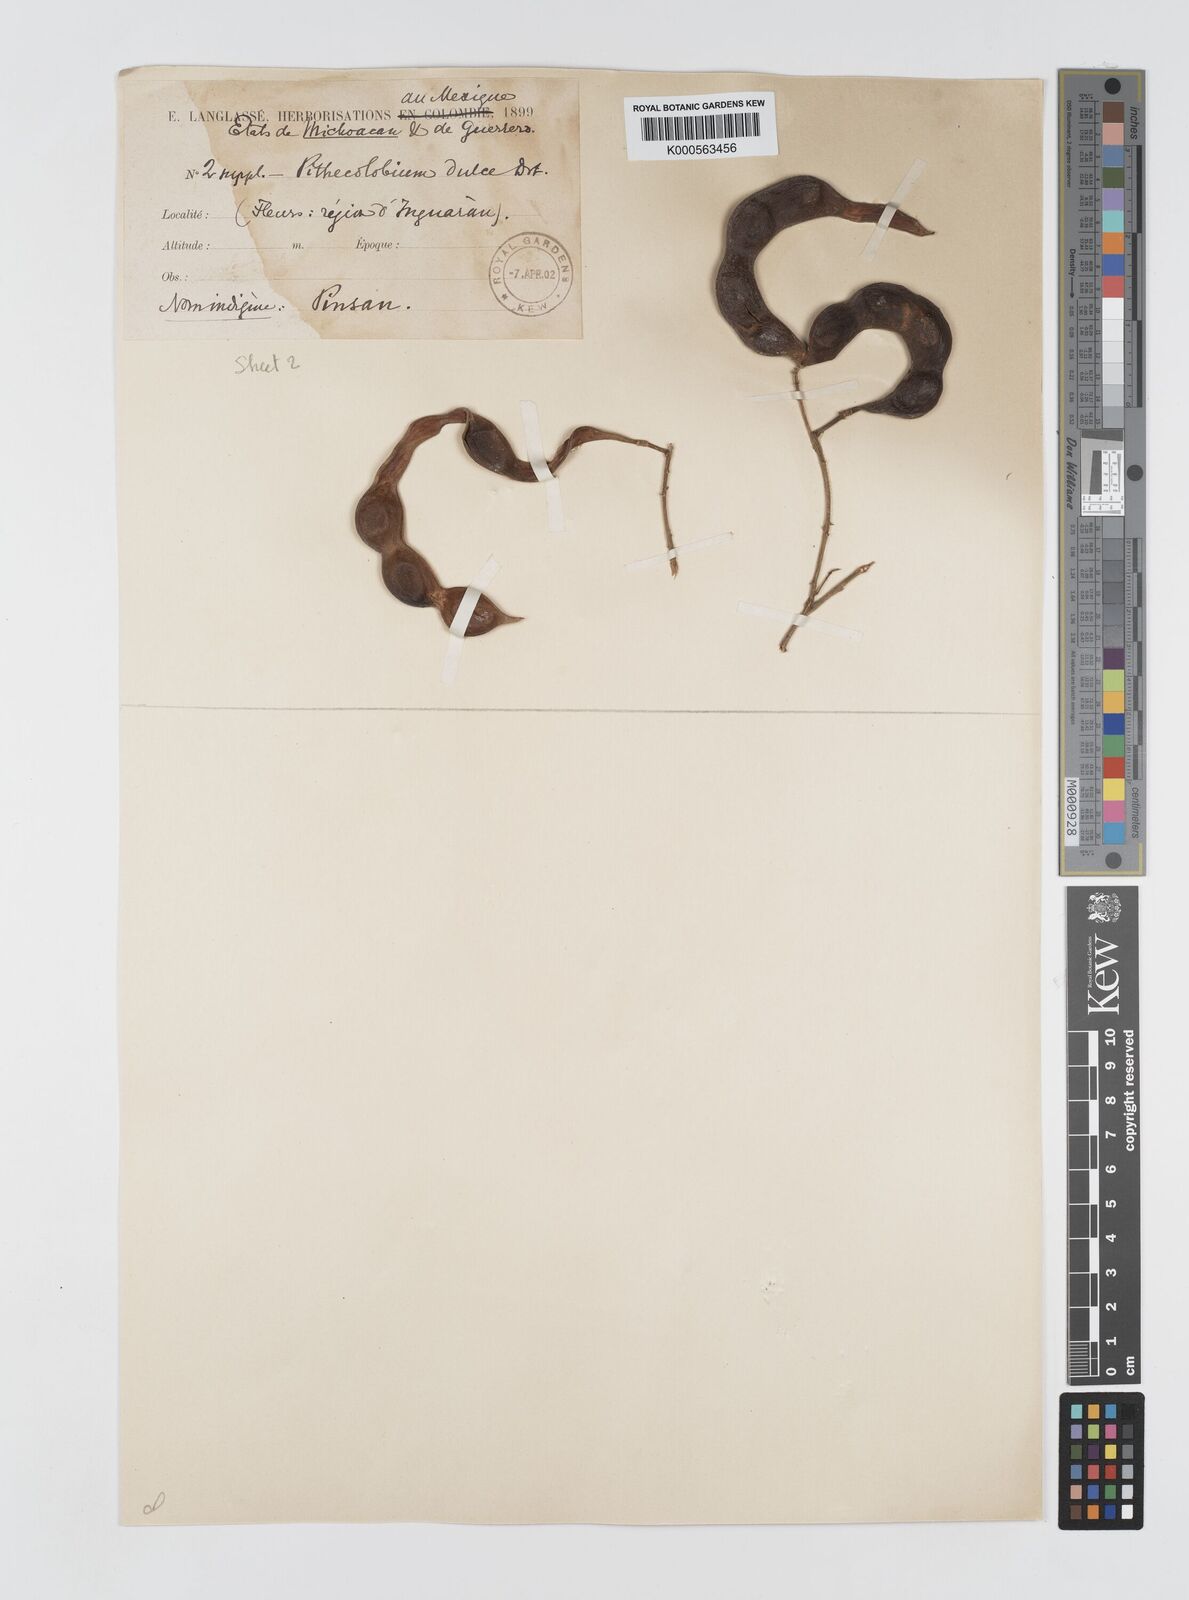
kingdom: Plantae
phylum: Tracheophyta
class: Magnoliopsida
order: Fabales
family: Fabaceae
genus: Pithecellobium
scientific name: Pithecellobium dulce
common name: Monkeypod
